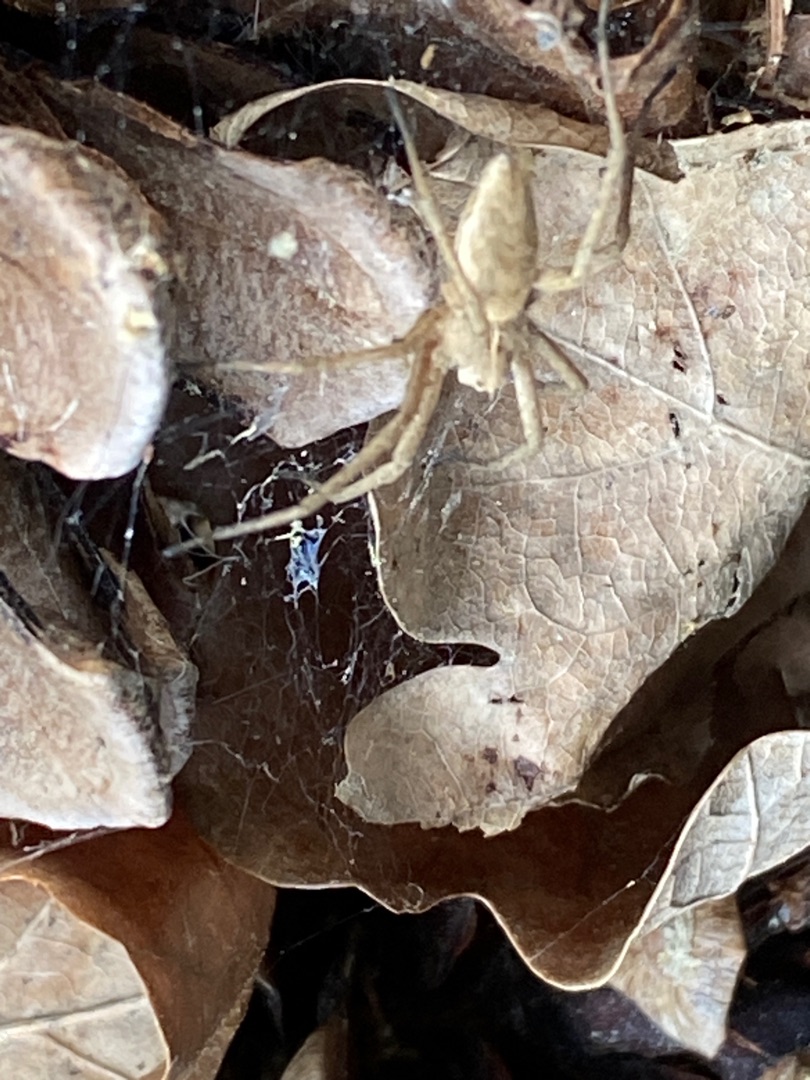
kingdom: Animalia
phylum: Arthropoda
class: Arachnida
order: Araneae
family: Pisauridae
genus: Pisaura
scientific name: Pisaura mirabilis
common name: Almindelig rovedderkop
